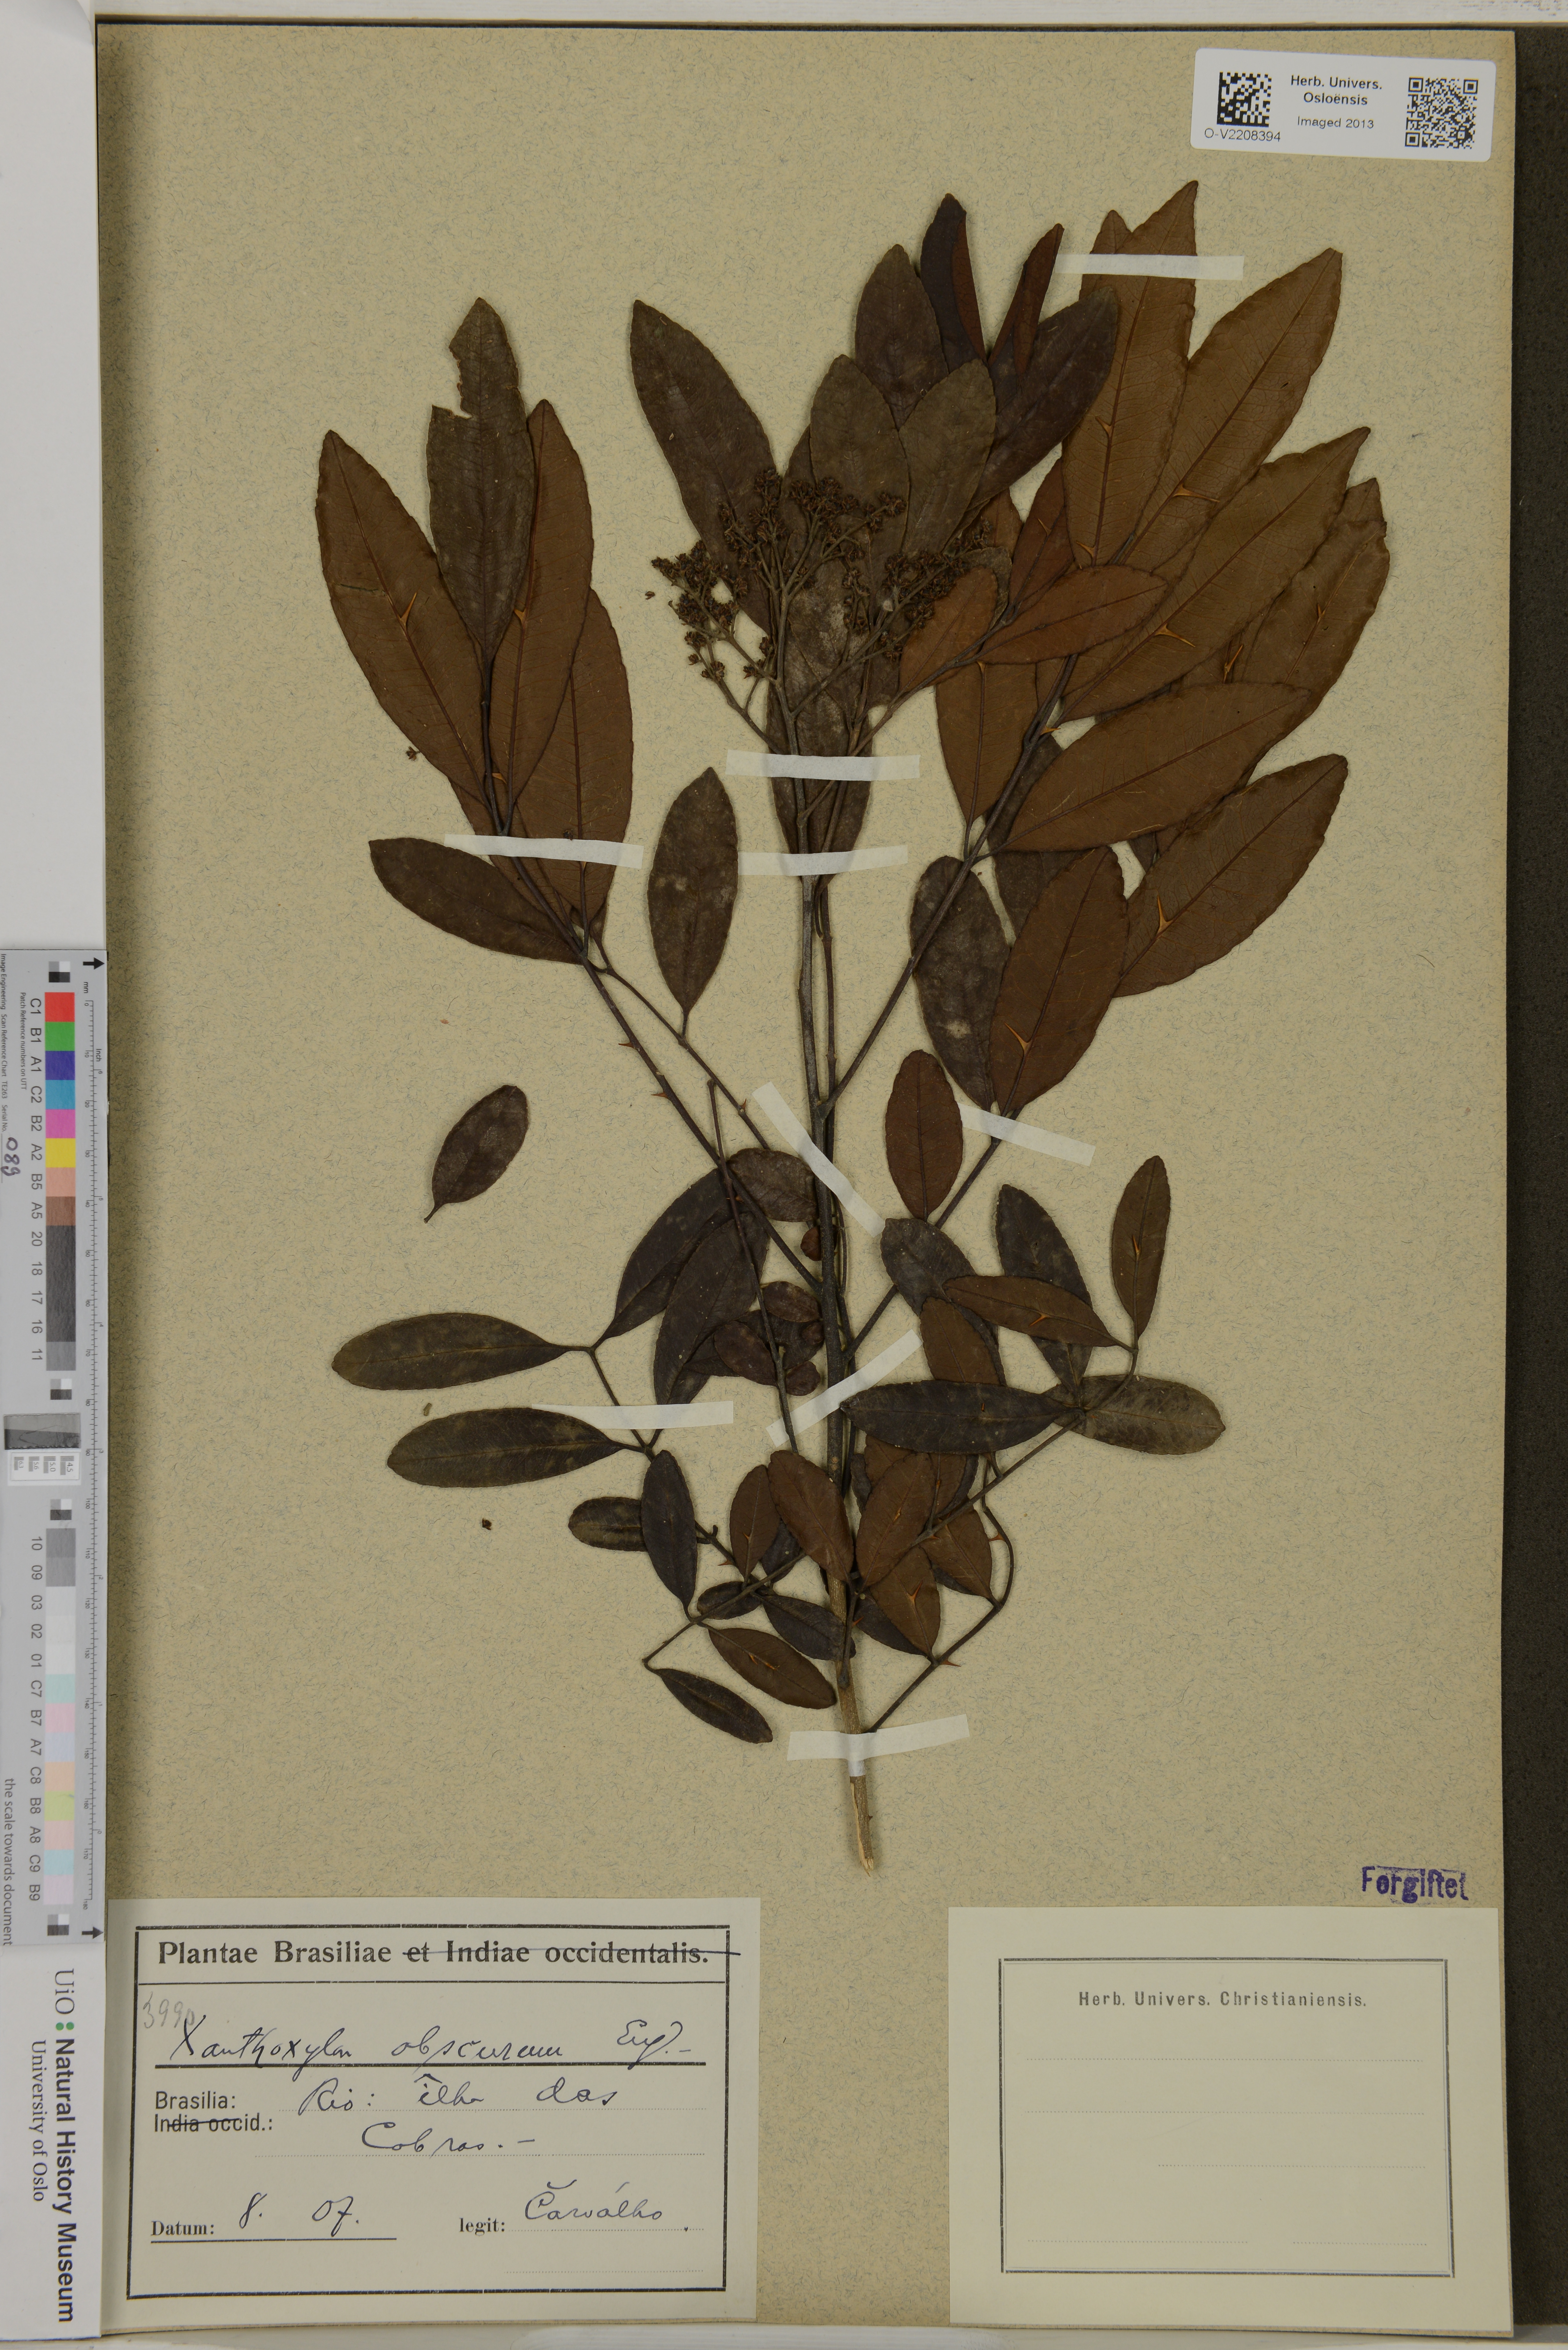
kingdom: Plantae
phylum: Tracheophyta
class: Magnoliopsida
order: Sapindales
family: Rutaceae
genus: Zanthoxylum
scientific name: Zanthoxylum rhoifolium
